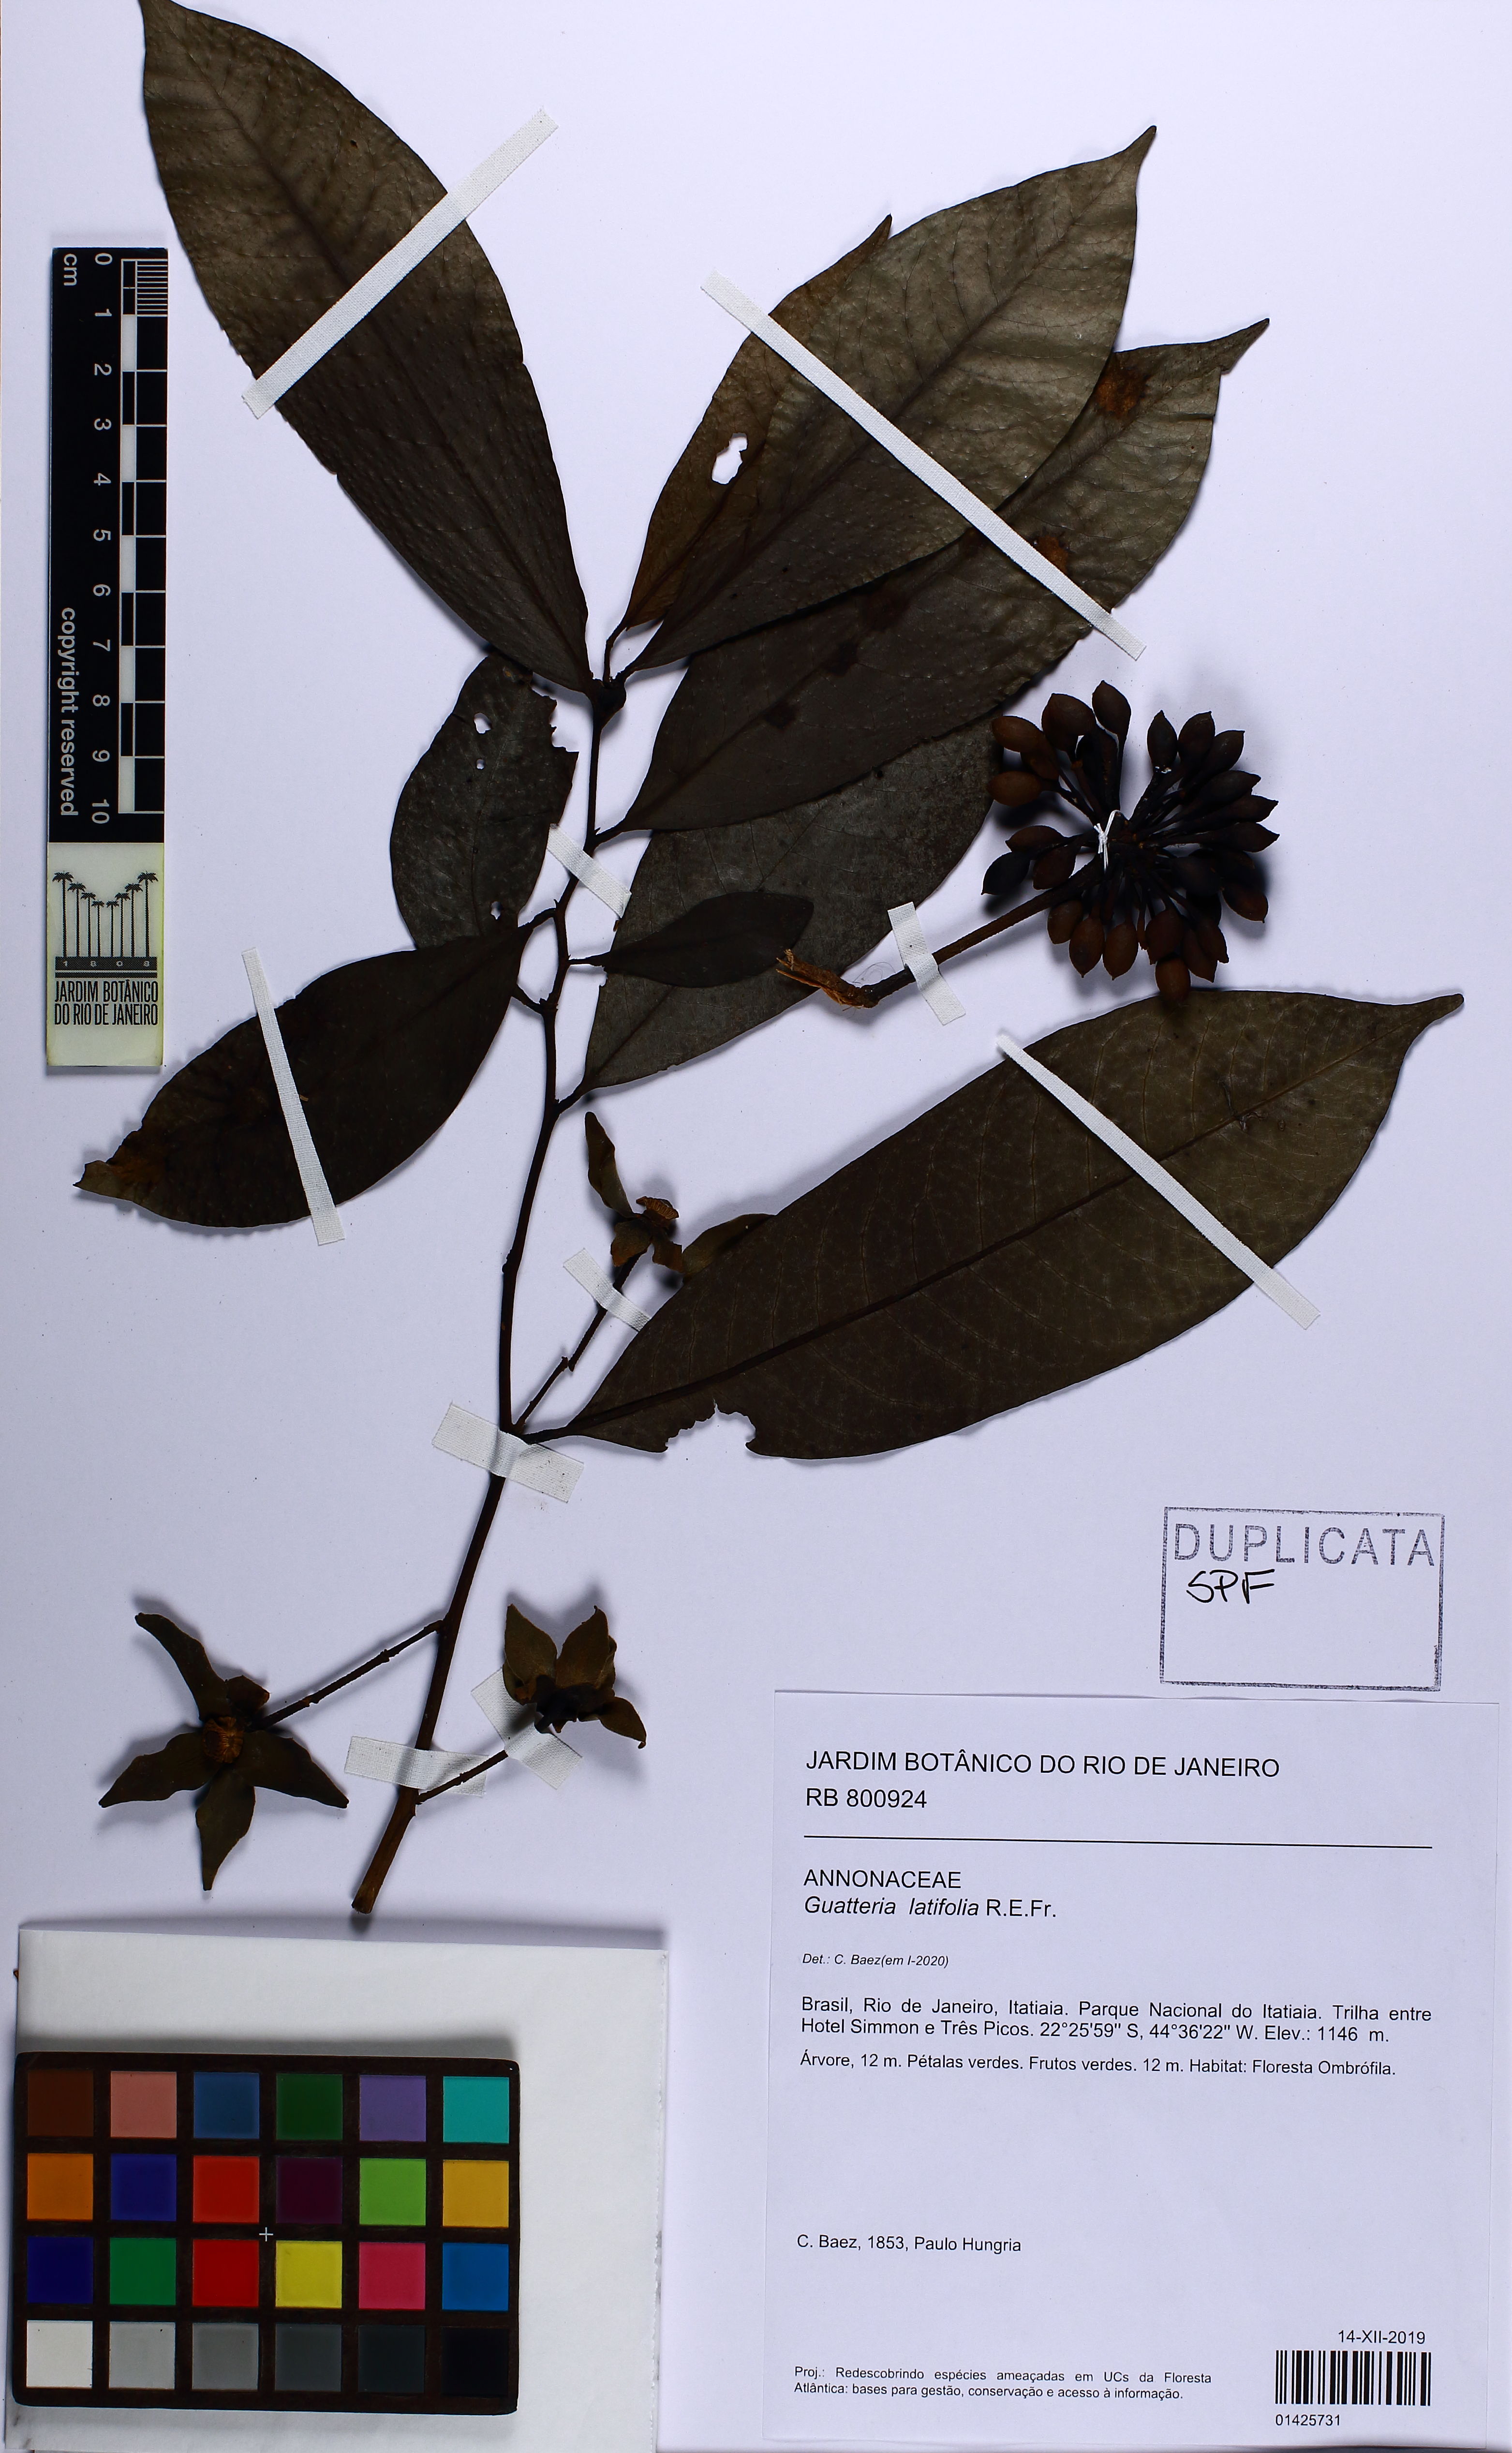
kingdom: Plantae
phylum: Tracheophyta
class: Magnoliopsida
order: Magnoliales
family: Annonaceae
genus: Guatteria
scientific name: Guatteria latifolia
